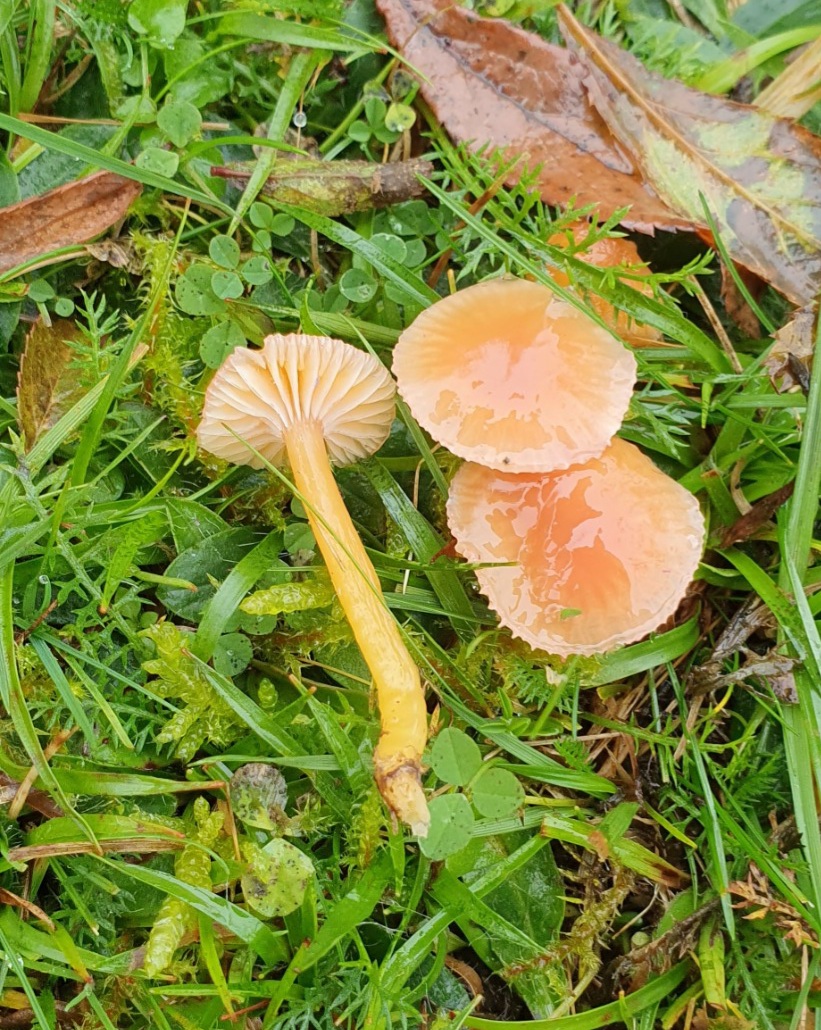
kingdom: Fungi
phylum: Basidiomycota
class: Agaricomycetes
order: Agaricales
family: Hygrophoraceae
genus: Gliophorus
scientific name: Gliophorus laetus
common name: brusk-vokshat
